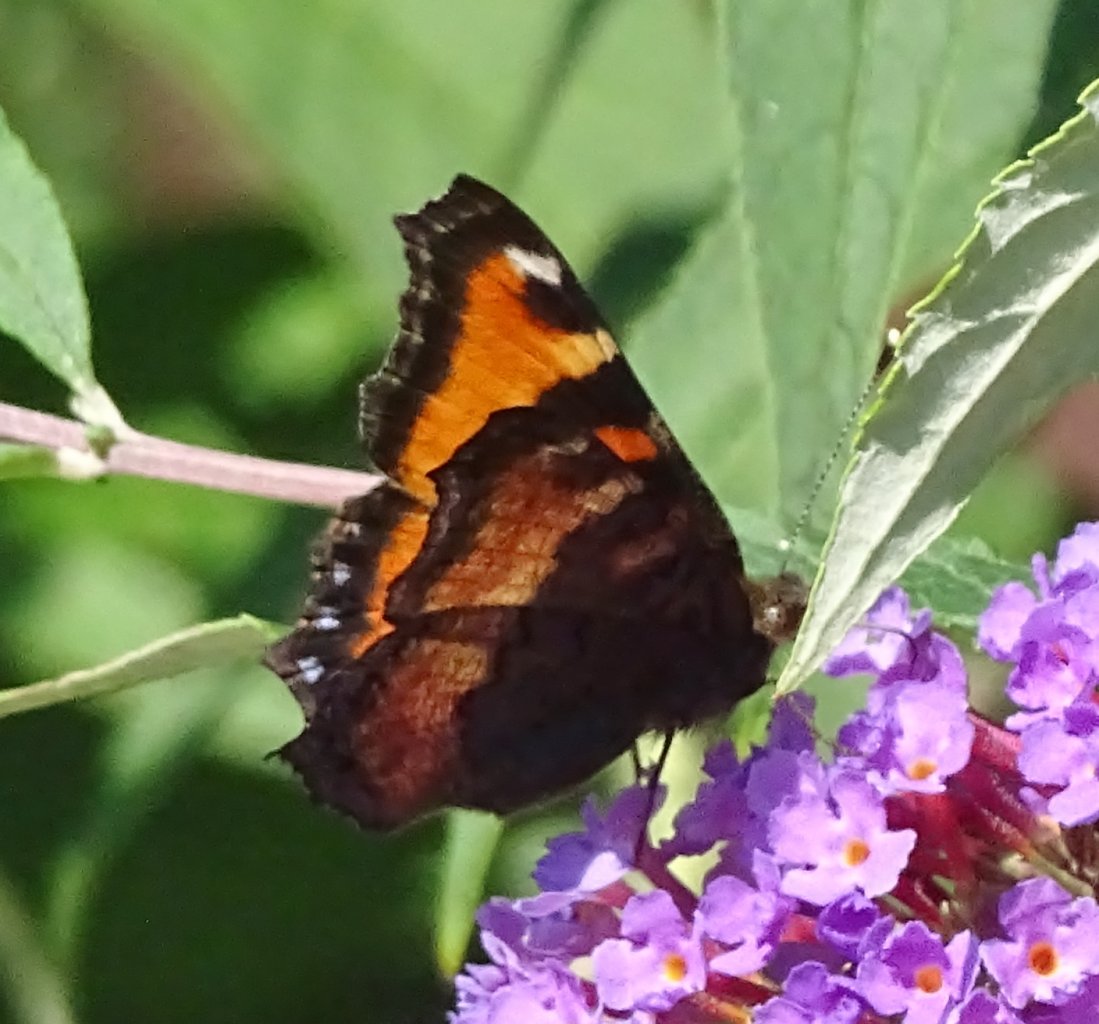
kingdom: Animalia
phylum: Arthropoda
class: Insecta
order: Lepidoptera
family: Nymphalidae
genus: Aglais
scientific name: Aglais milberti
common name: Milbert's Tortoiseshell
